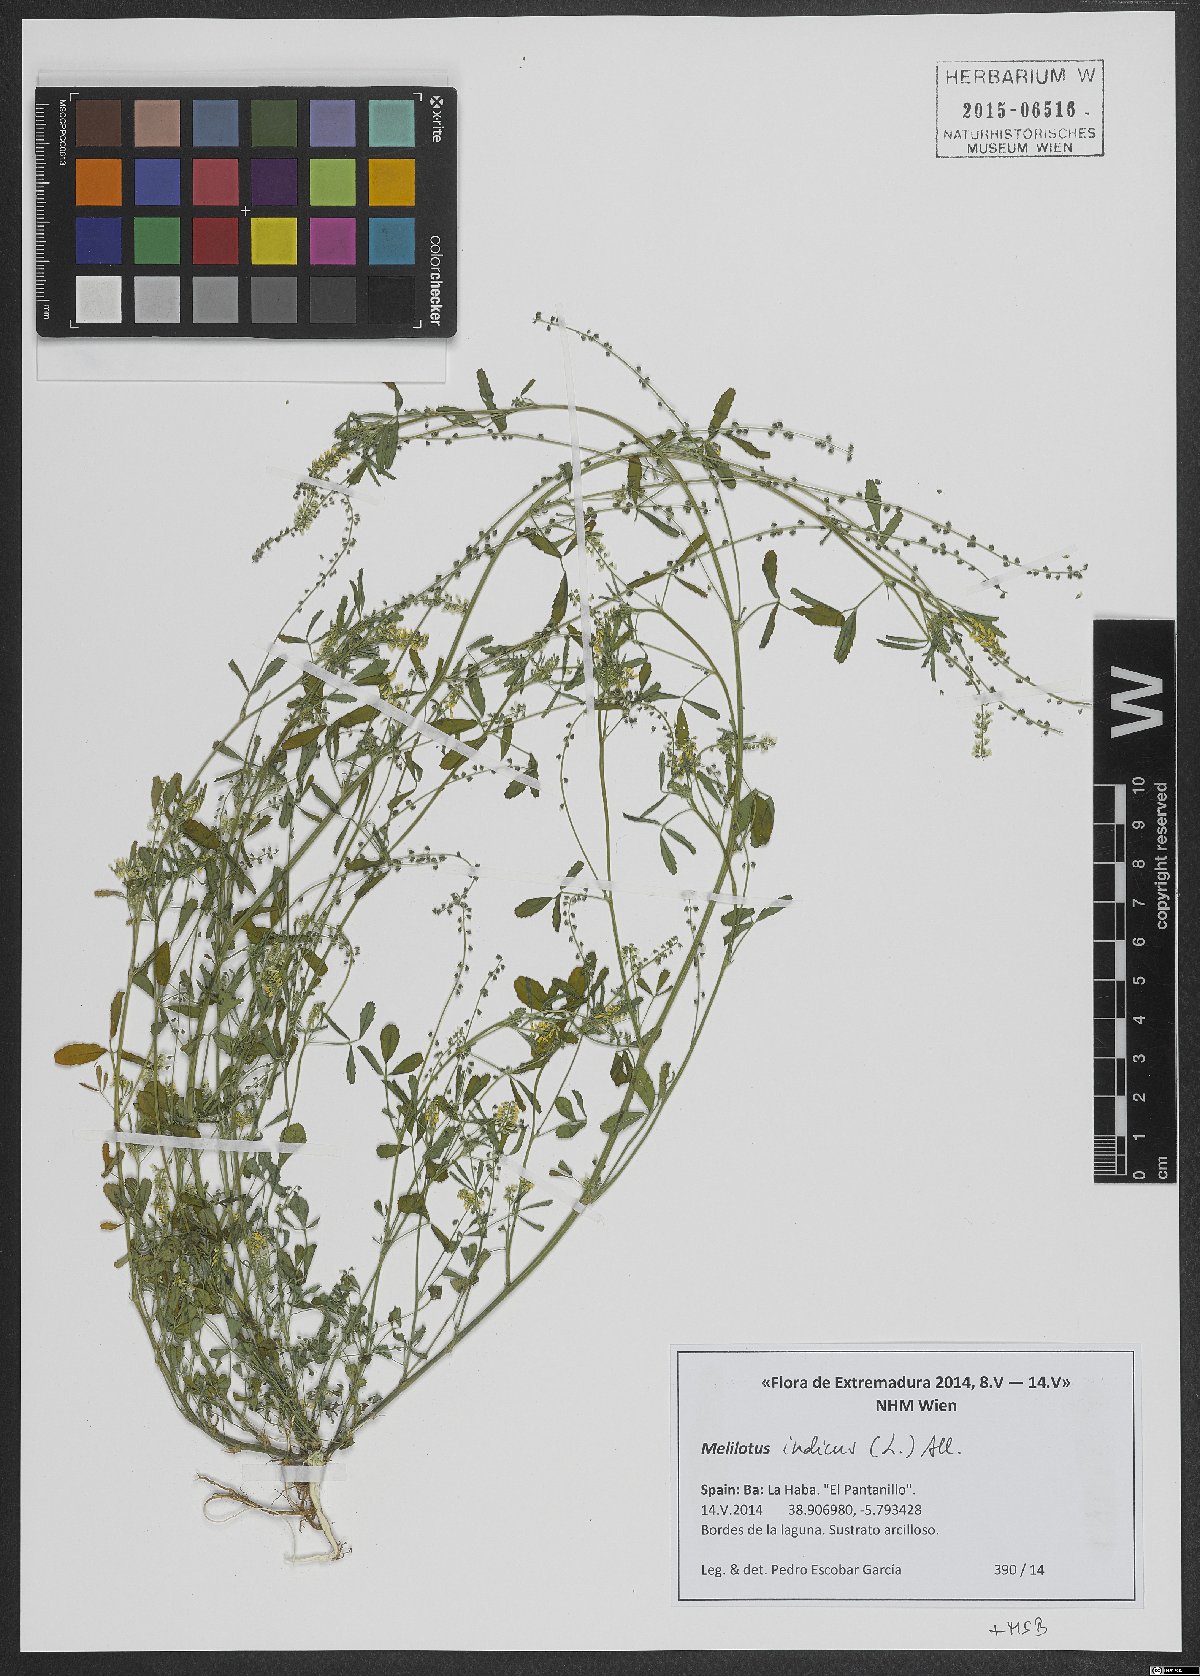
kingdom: Plantae
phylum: Tracheophyta
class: Magnoliopsida
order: Fabales
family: Fabaceae
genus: Melilotus
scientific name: Melilotus indicus
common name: Small melilot
